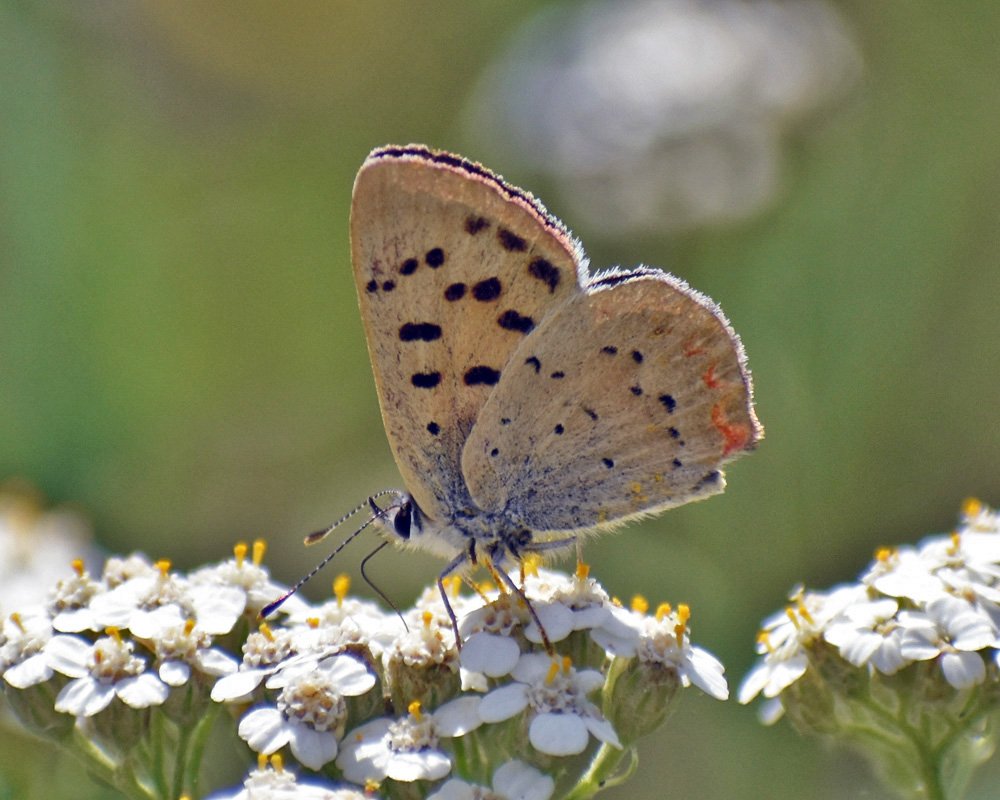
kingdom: Animalia
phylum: Arthropoda
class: Insecta
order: Lepidoptera
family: Sesiidae
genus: Sesia
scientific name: Sesia Lycaena helloides
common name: Purplish Copper
